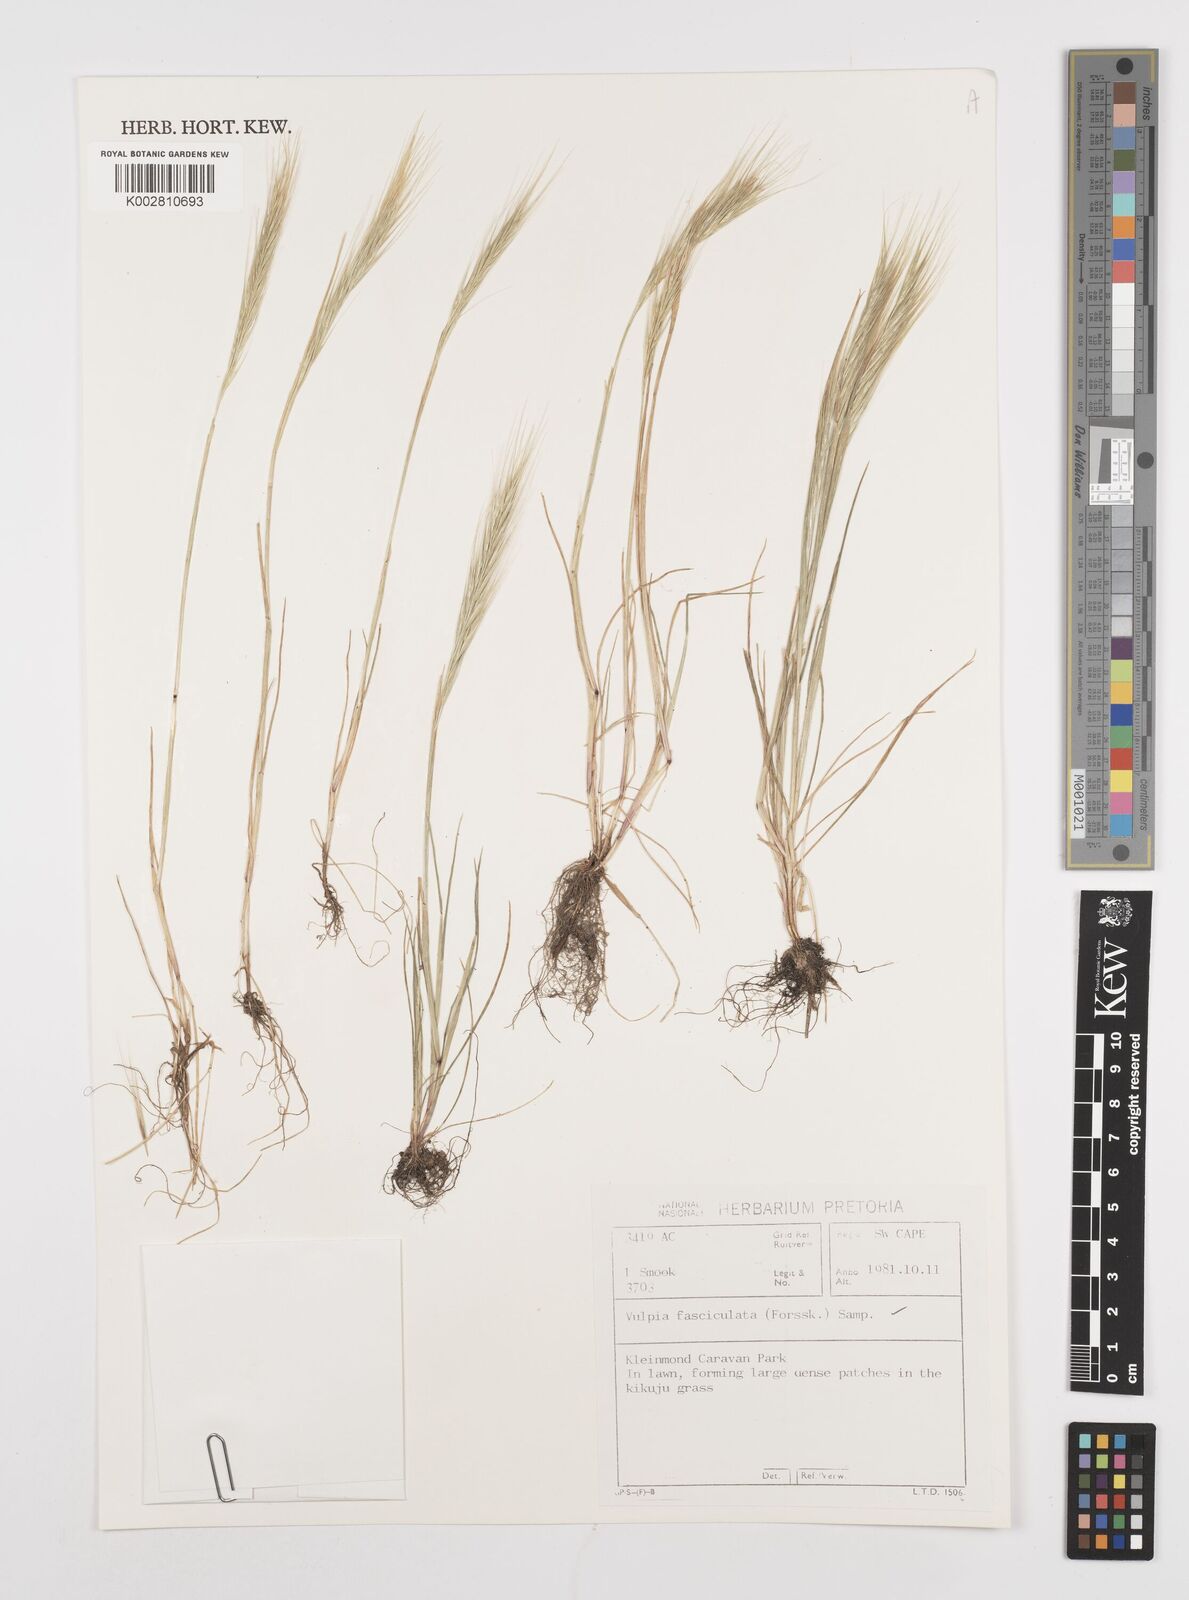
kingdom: Plantae
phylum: Tracheophyta
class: Liliopsida
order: Poales
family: Poaceae
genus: Festuca
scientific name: Festuca fasciculata
